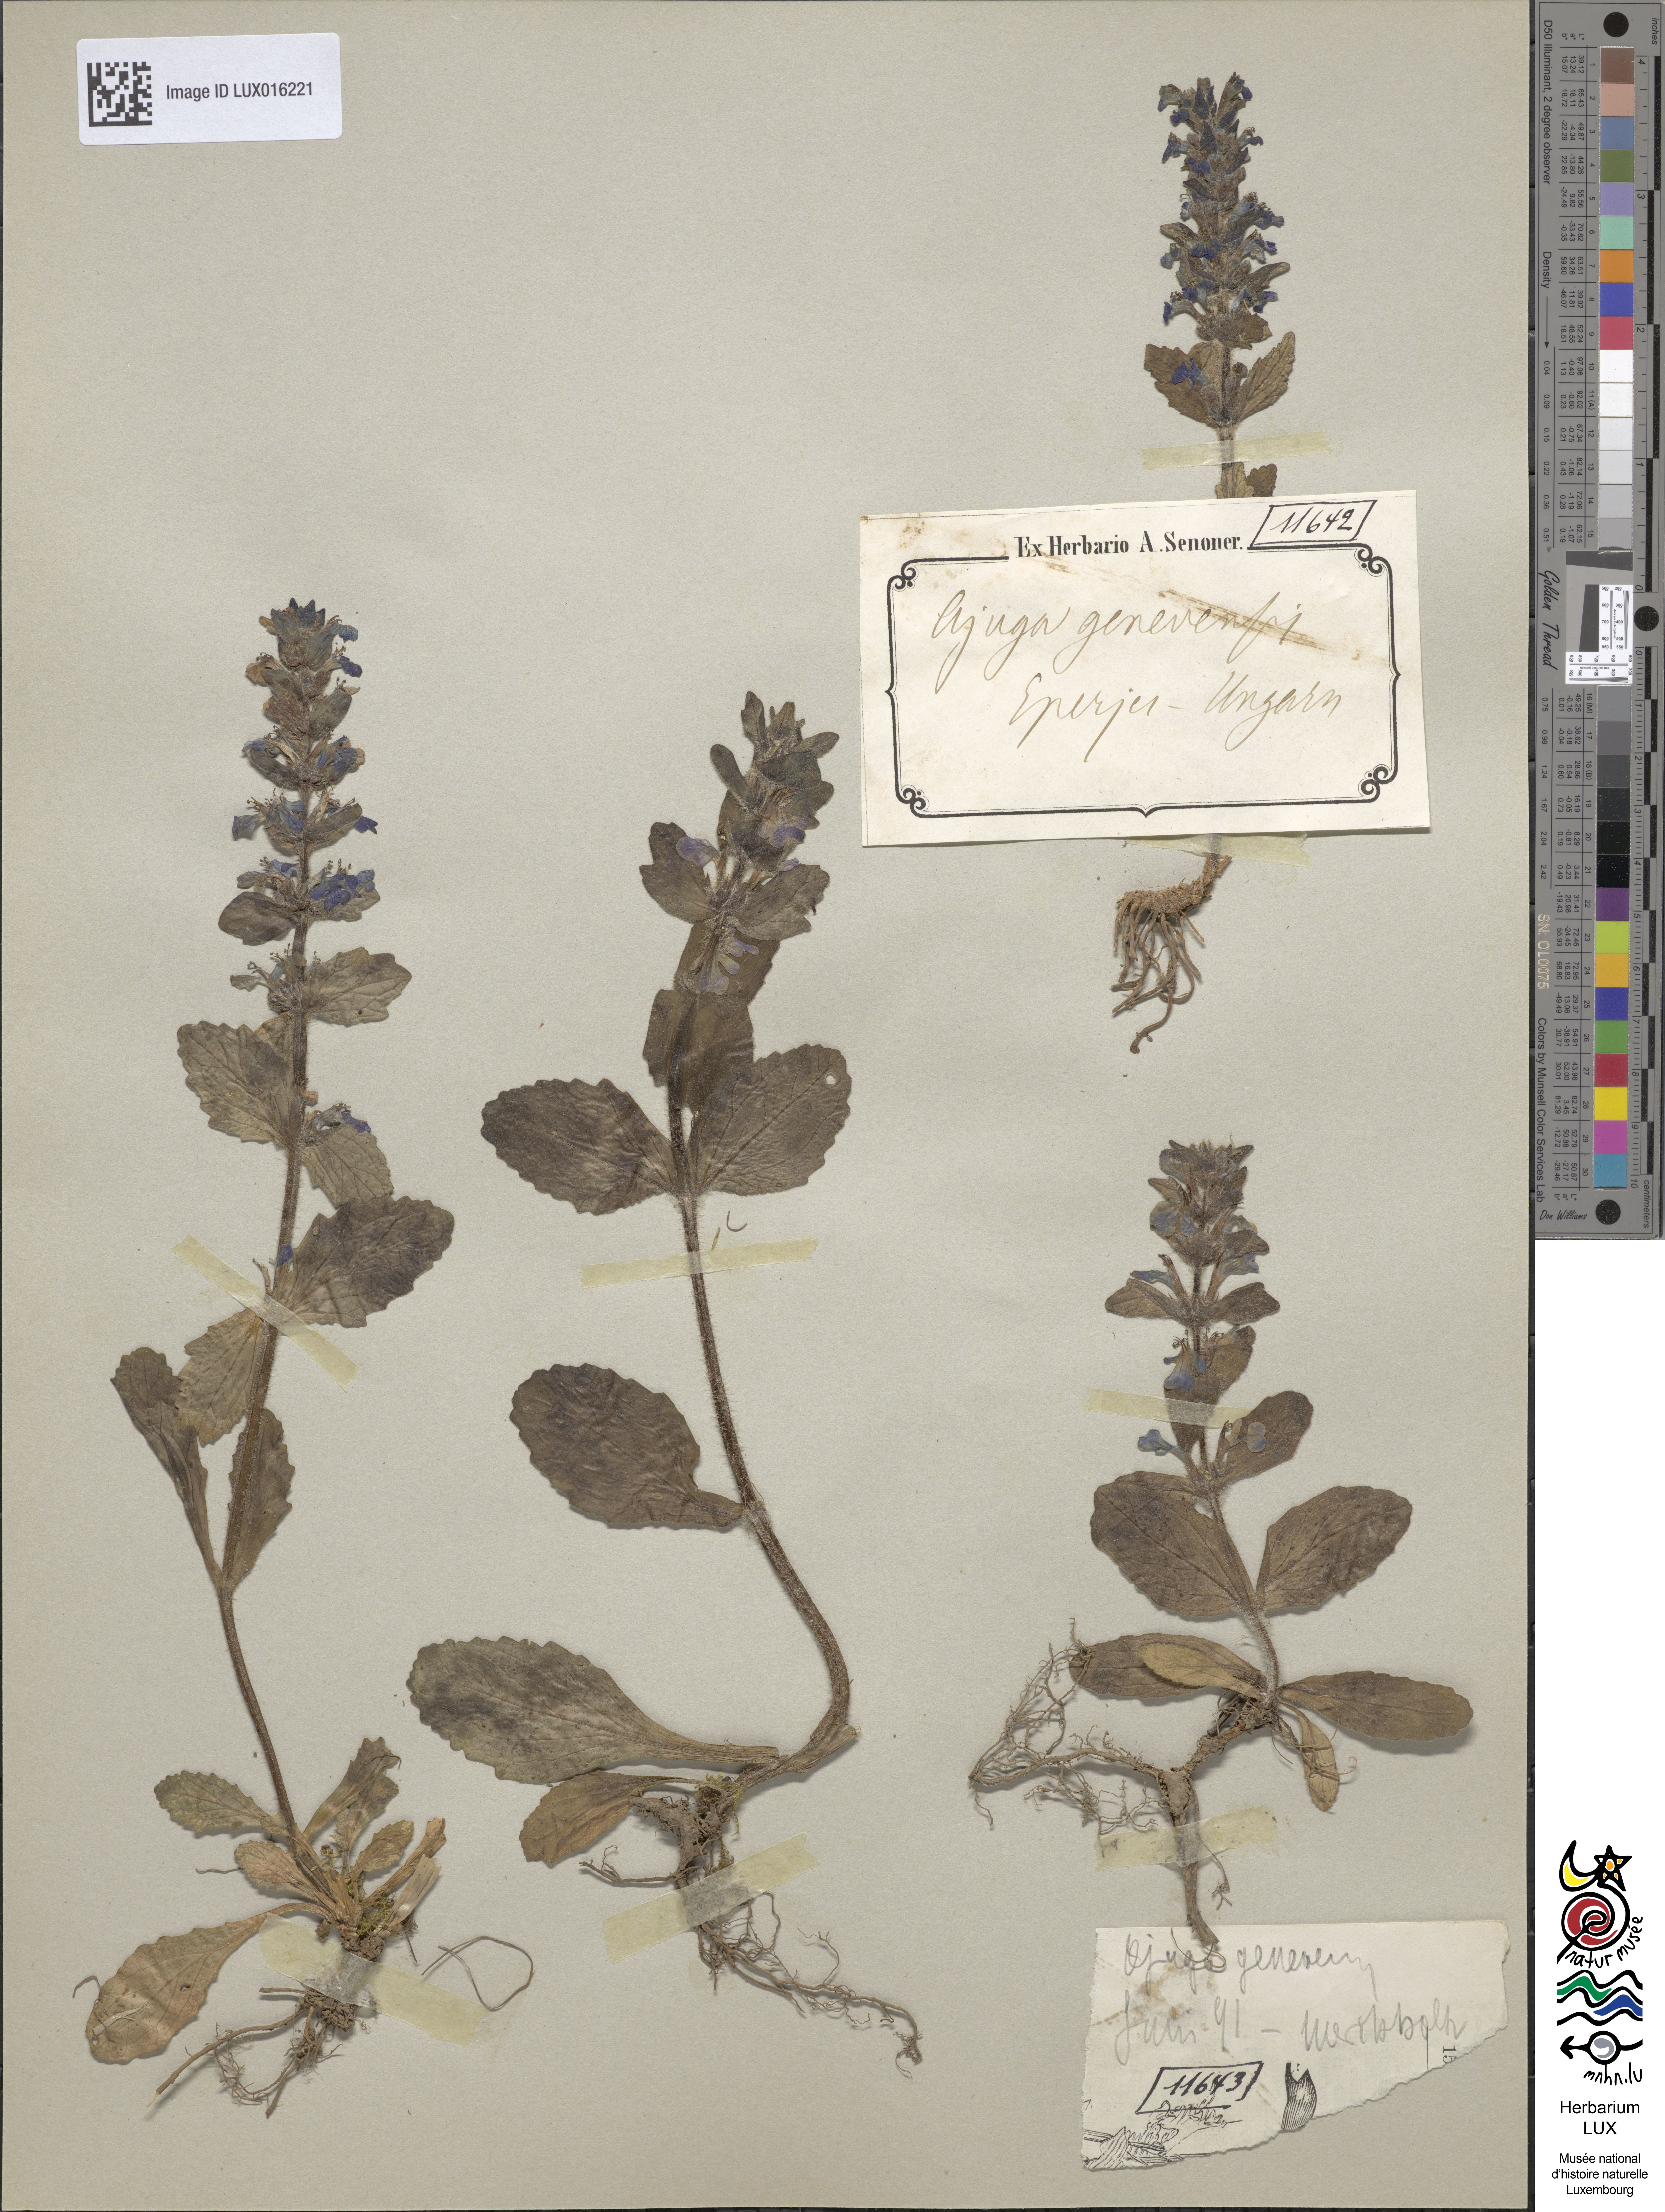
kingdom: Plantae
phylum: Tracheophyta
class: Magnoliopsida
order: Lamiales
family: Lamiaceae
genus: Ajuga
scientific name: Ajuga genevensis
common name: Blue bugle
